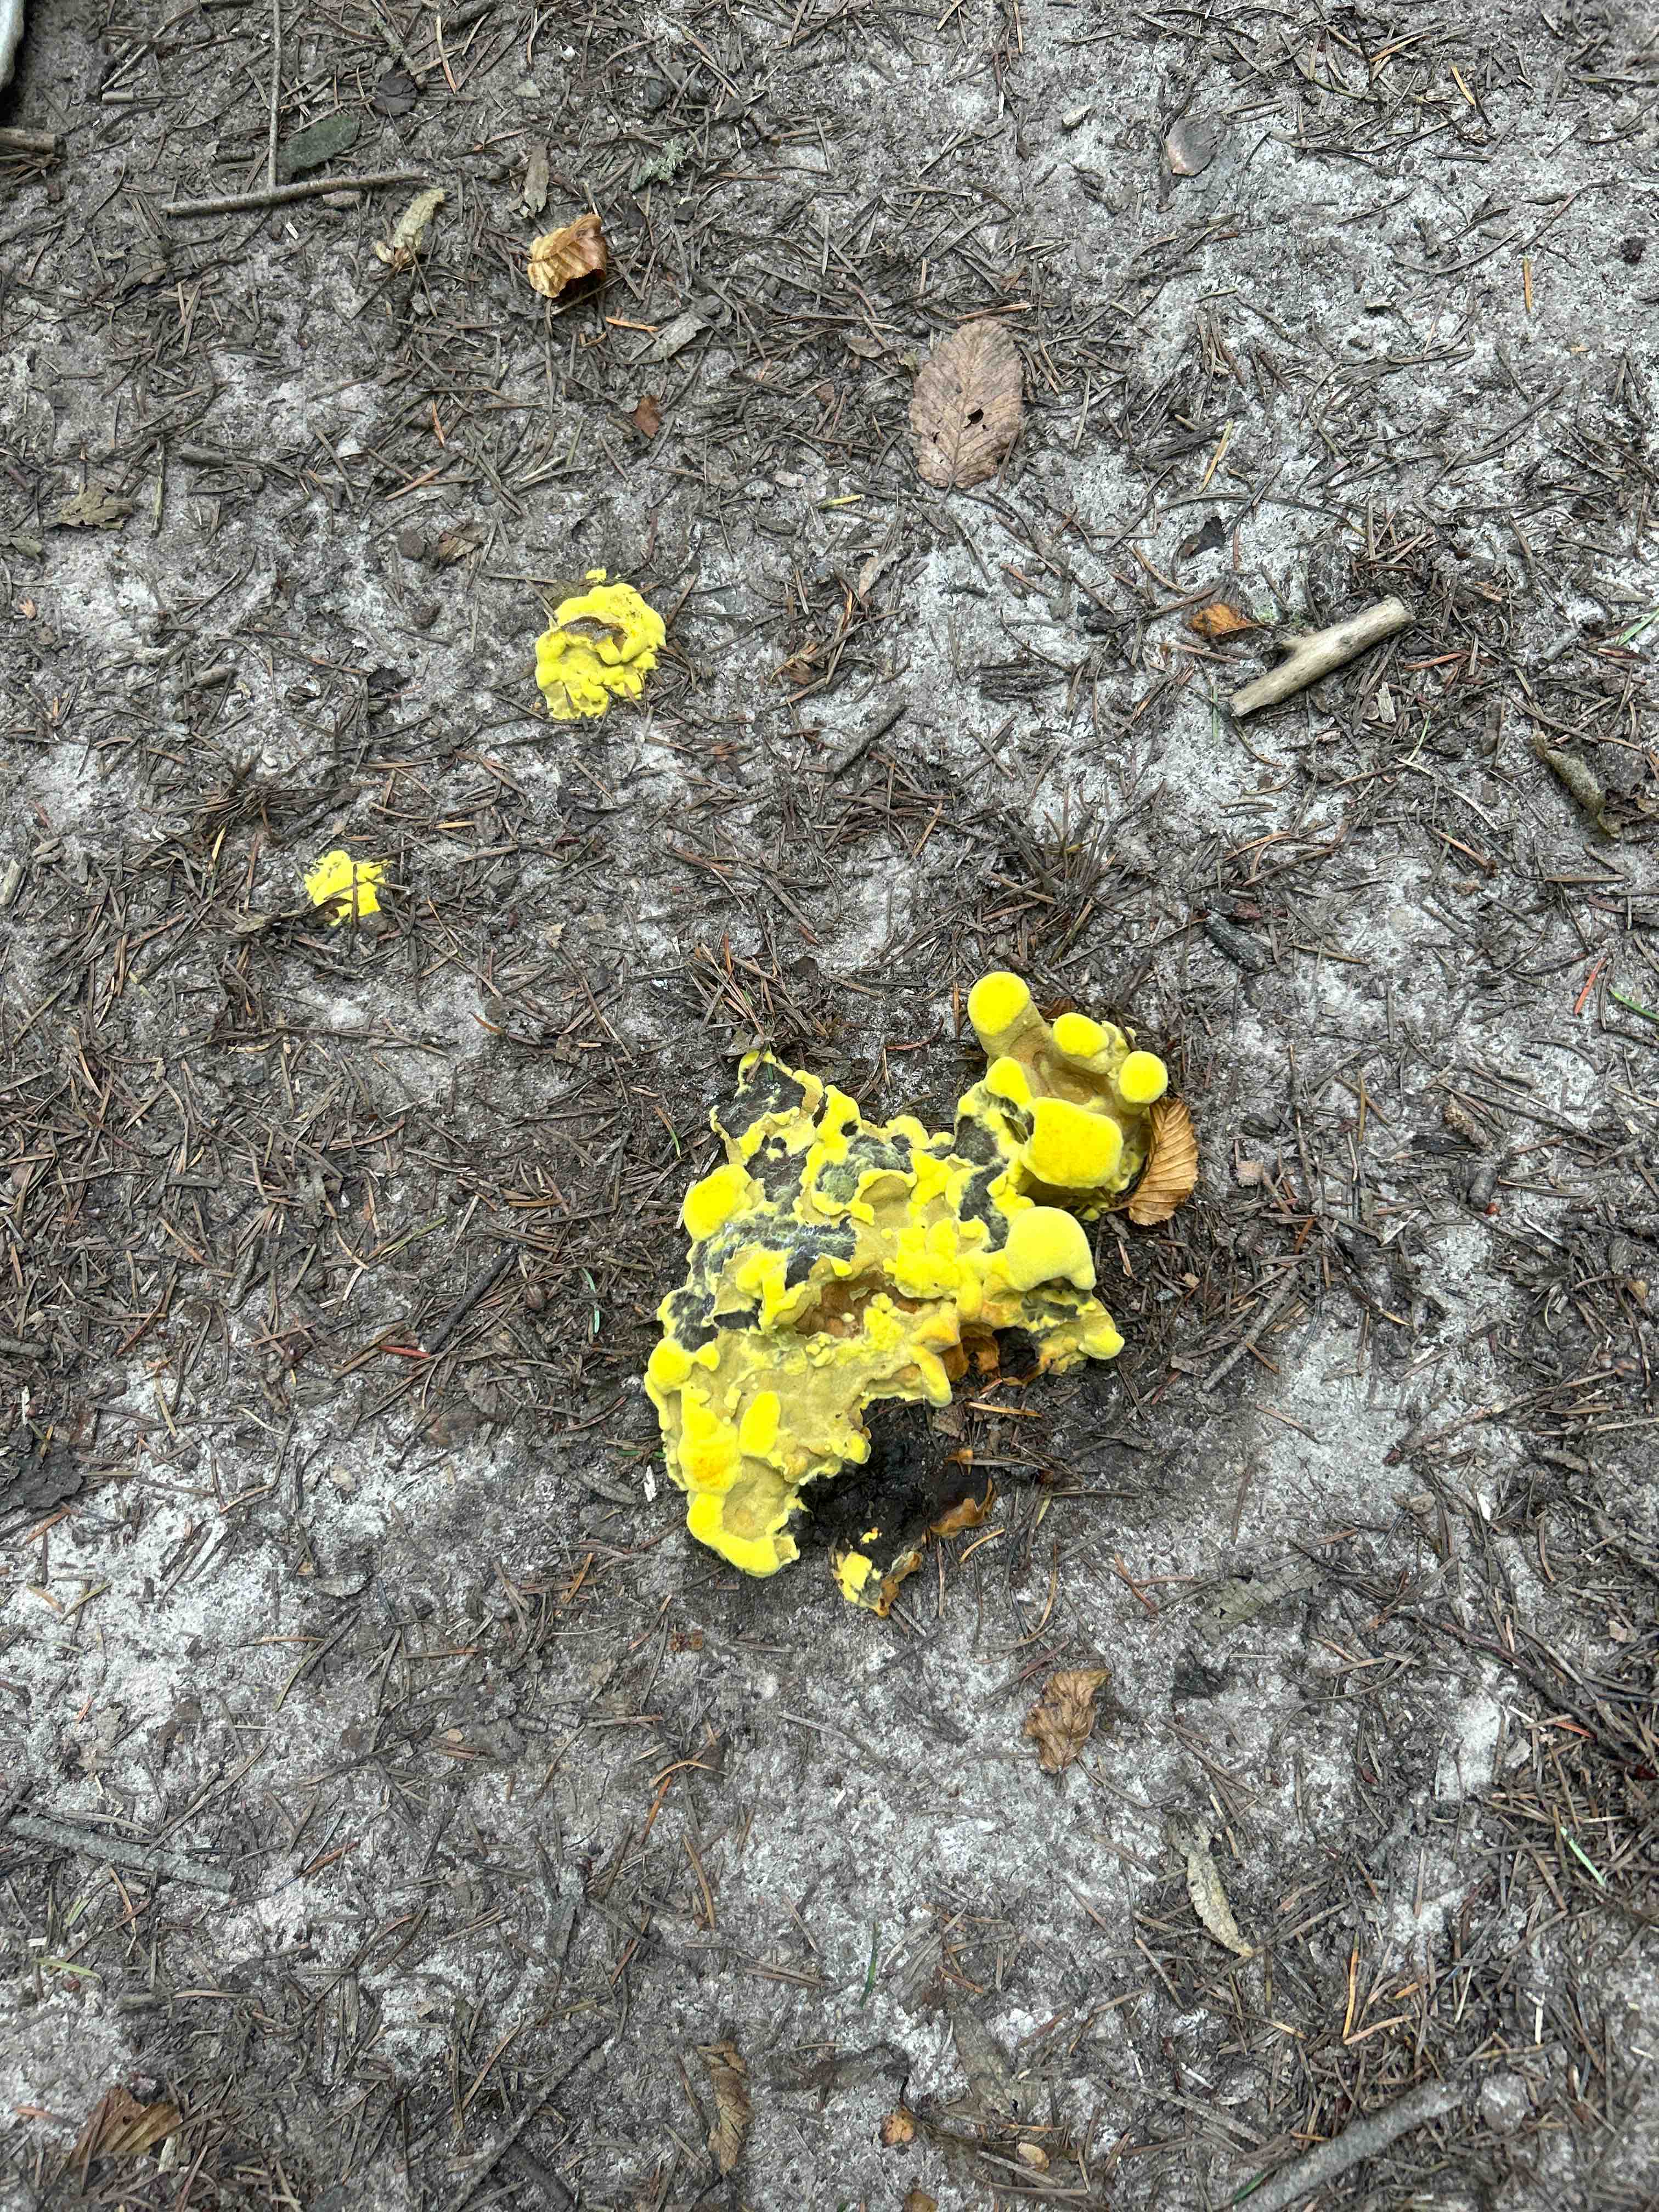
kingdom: Fungi
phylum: Basidiomycota
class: Agaricomycetes
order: Polyporales
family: Laetiporaceae
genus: Phaeolus
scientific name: Phaeolus schweinitzii
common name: brunporesvamp
